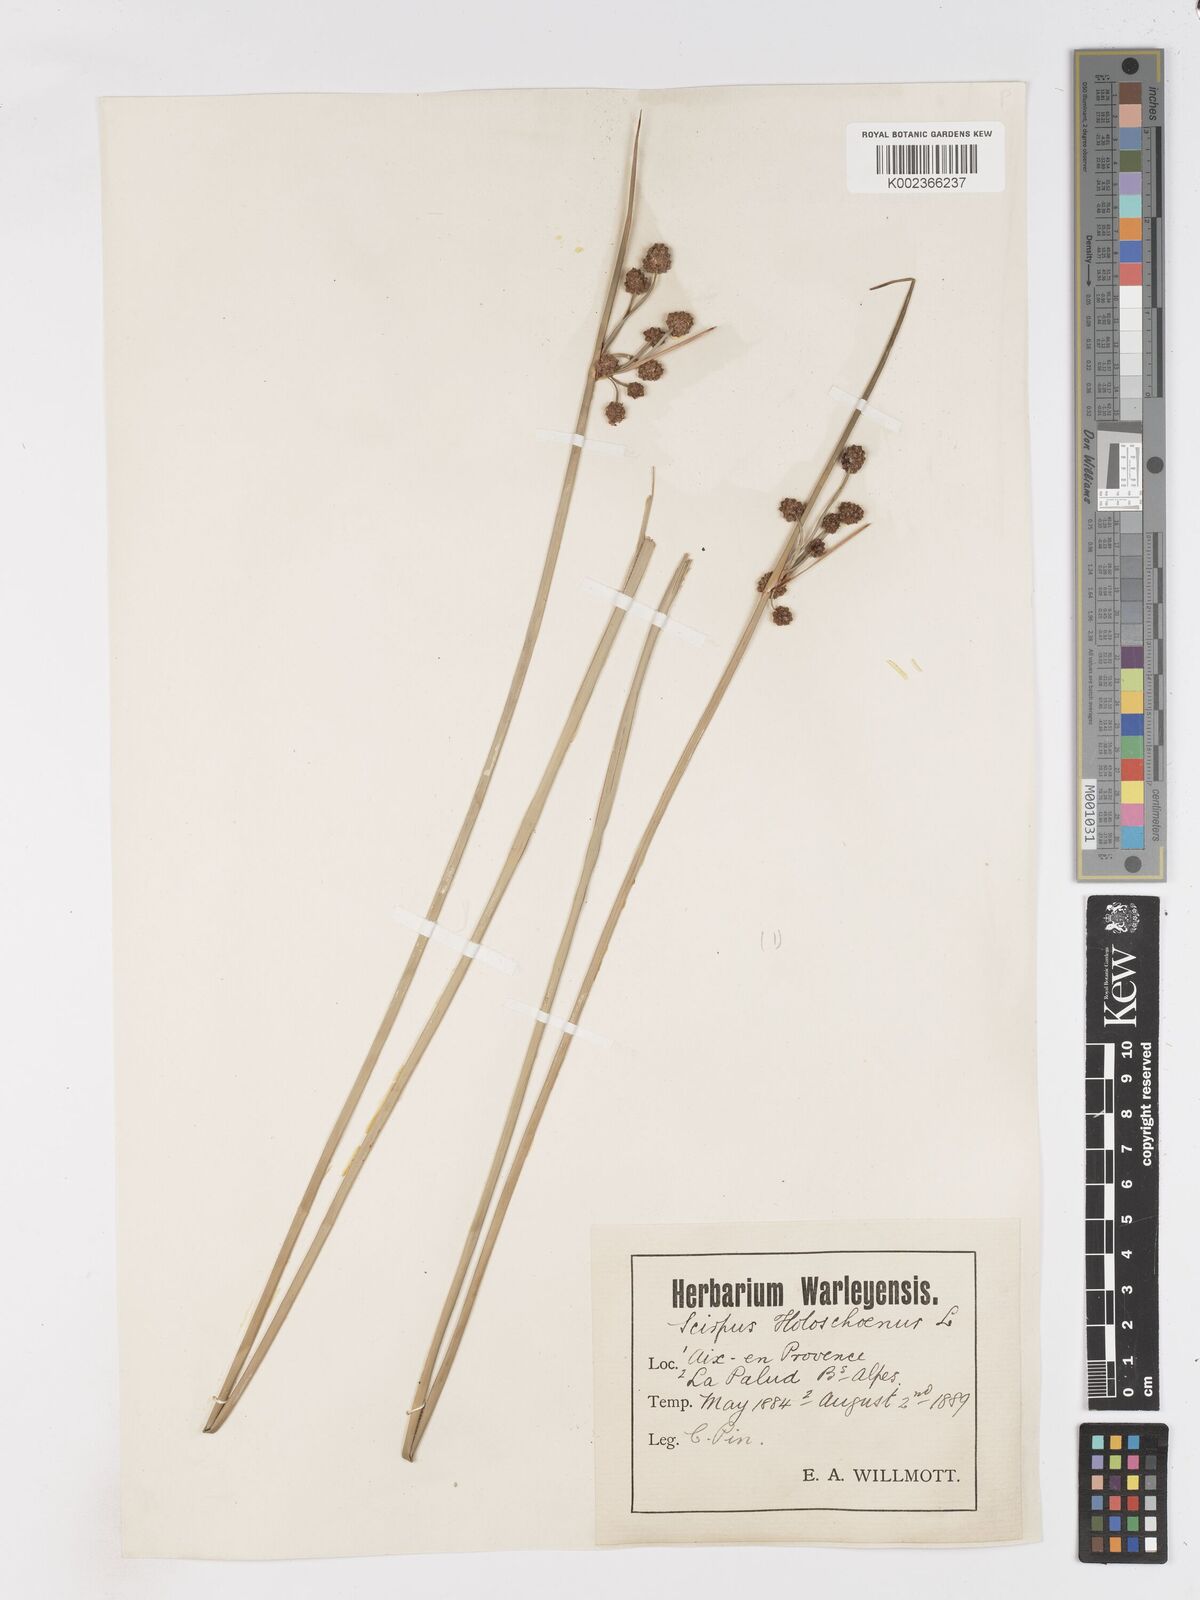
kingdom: Plantae
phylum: Tracheophyta
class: Liliopsida
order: Poales
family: Cyperaceae
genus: Scirpoides
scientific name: Scirpoides holoschoenus
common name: Round-headed club-rush
